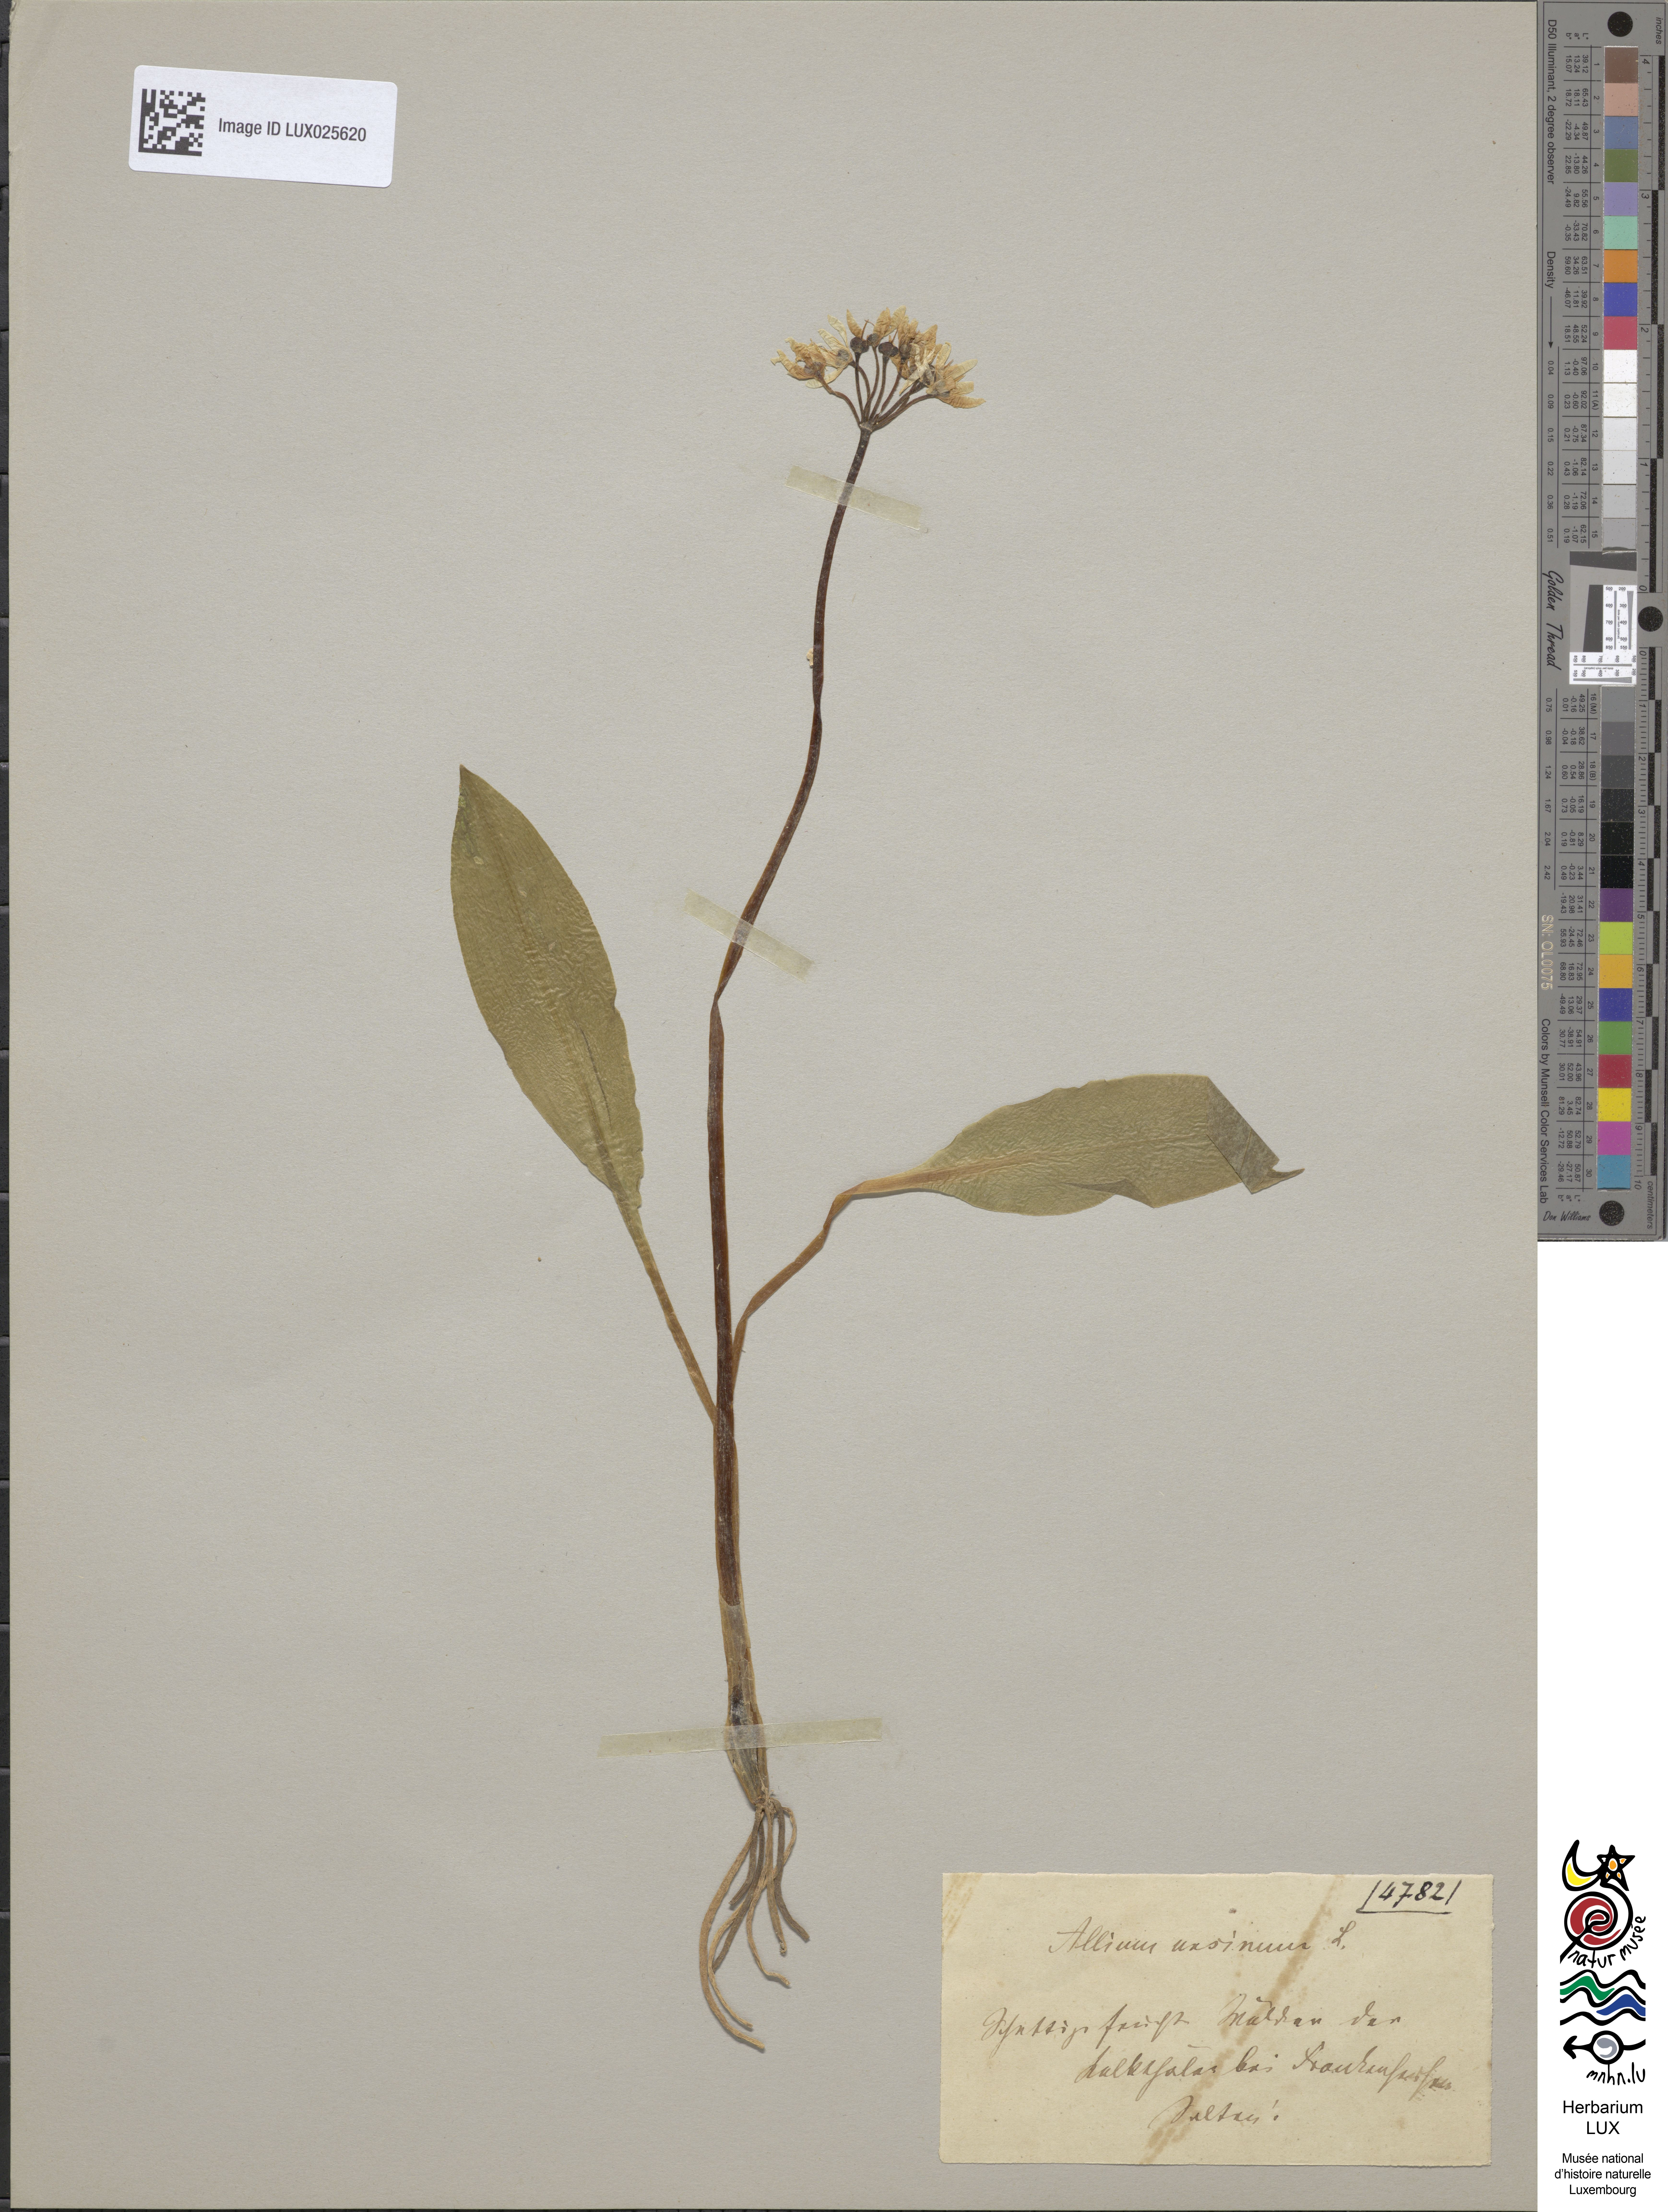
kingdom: Plantae
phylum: Tracheophyta
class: Liliopsida
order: Asparagales
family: Amaryllidaceae
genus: Allium
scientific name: Allium ursinum
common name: Ramsons
